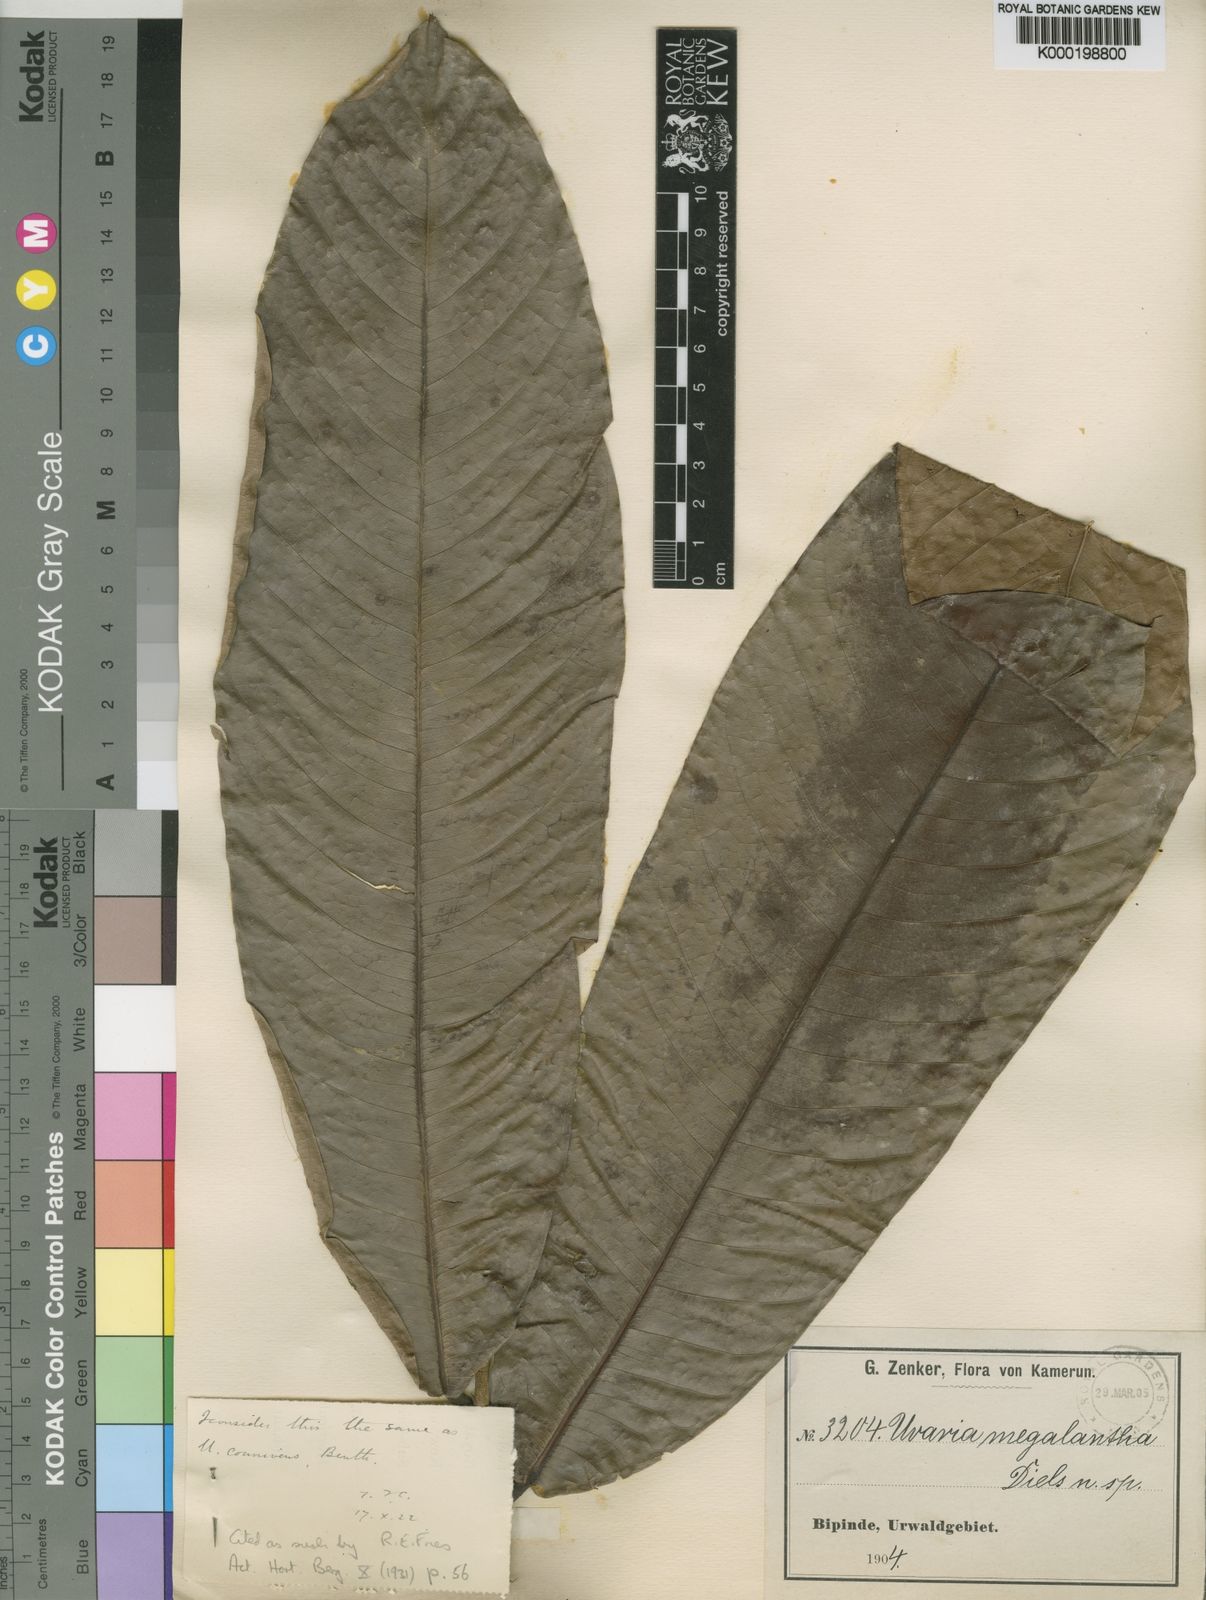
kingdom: Plantae
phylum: Tracheophyta
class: Magnoliopsida
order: Magnoliales
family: Annonaceae
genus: Uvariodendron
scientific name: Uvariodendron connivens
